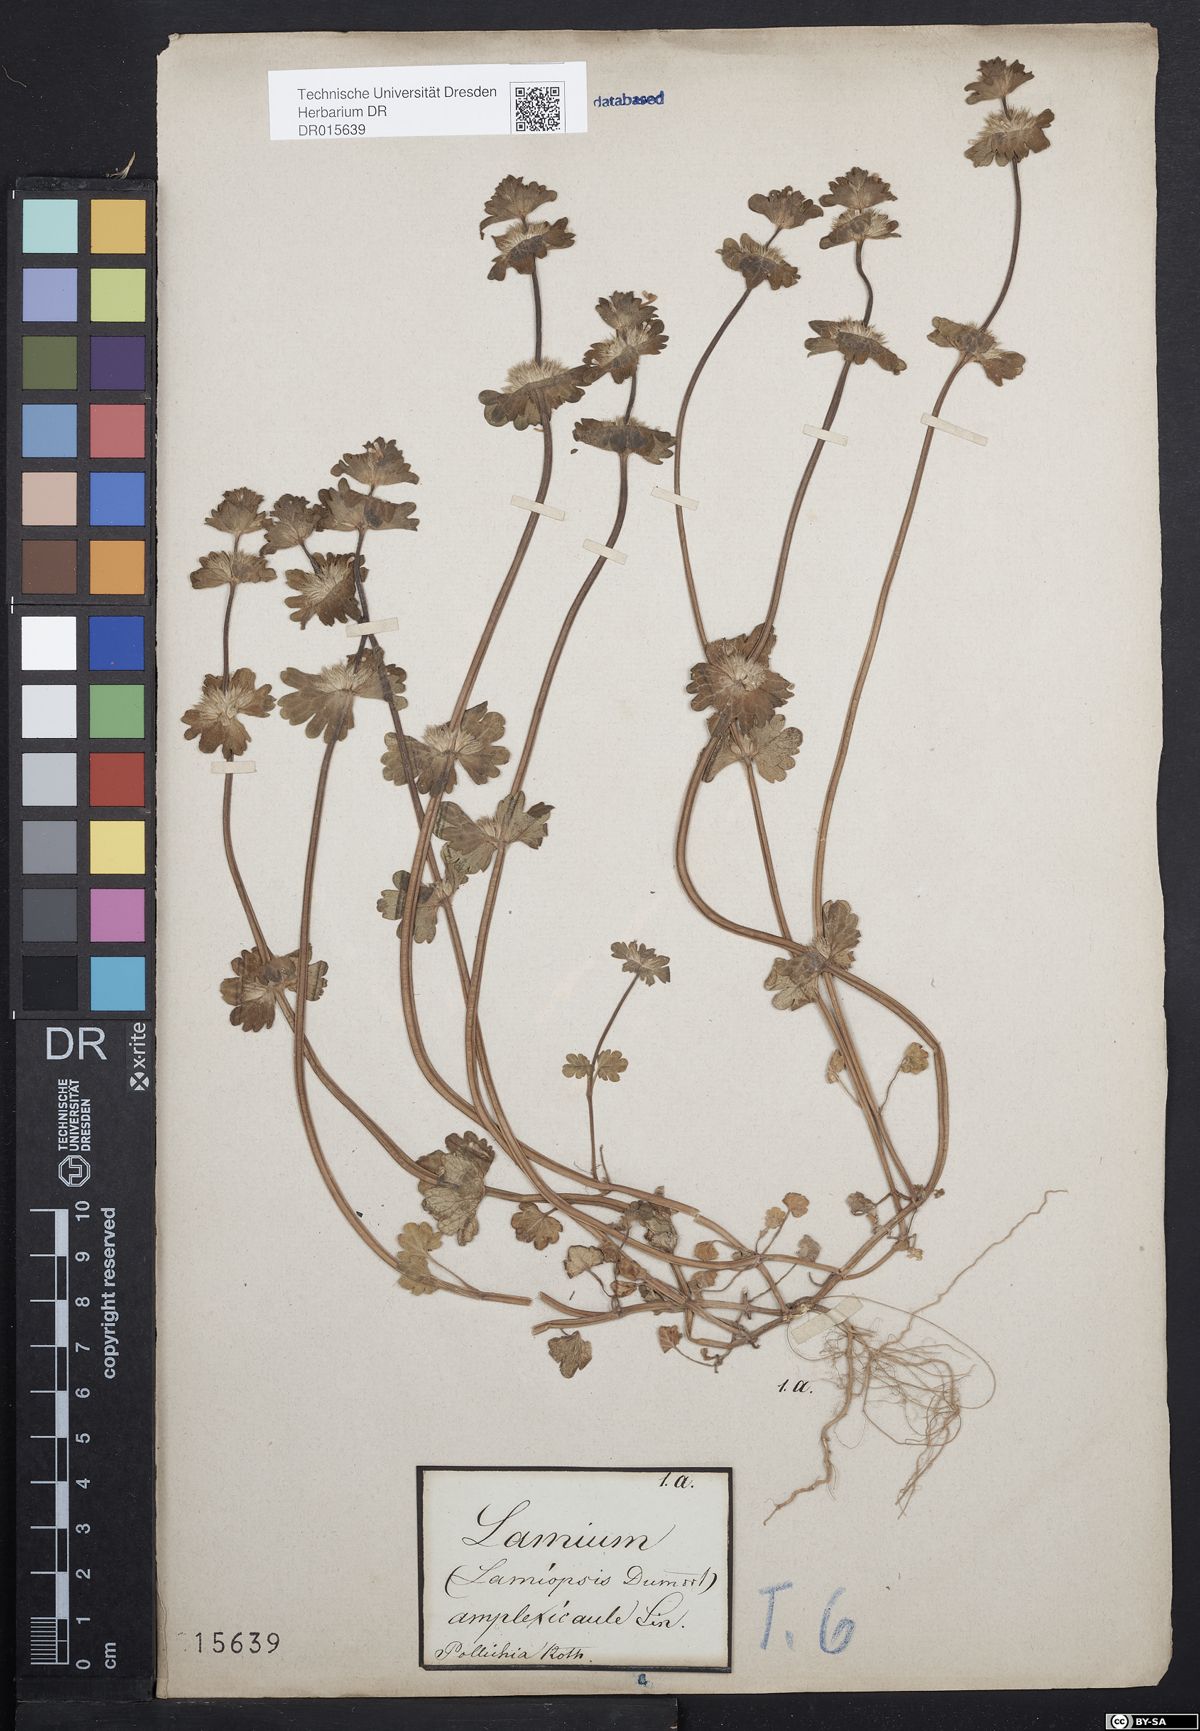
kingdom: Plantae
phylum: Tracheophyta
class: Magnoliopsida
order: Lamiales
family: Lamiaceae
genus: Lamium
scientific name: Lamium amplexicaule
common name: Henbit dead-nettle
